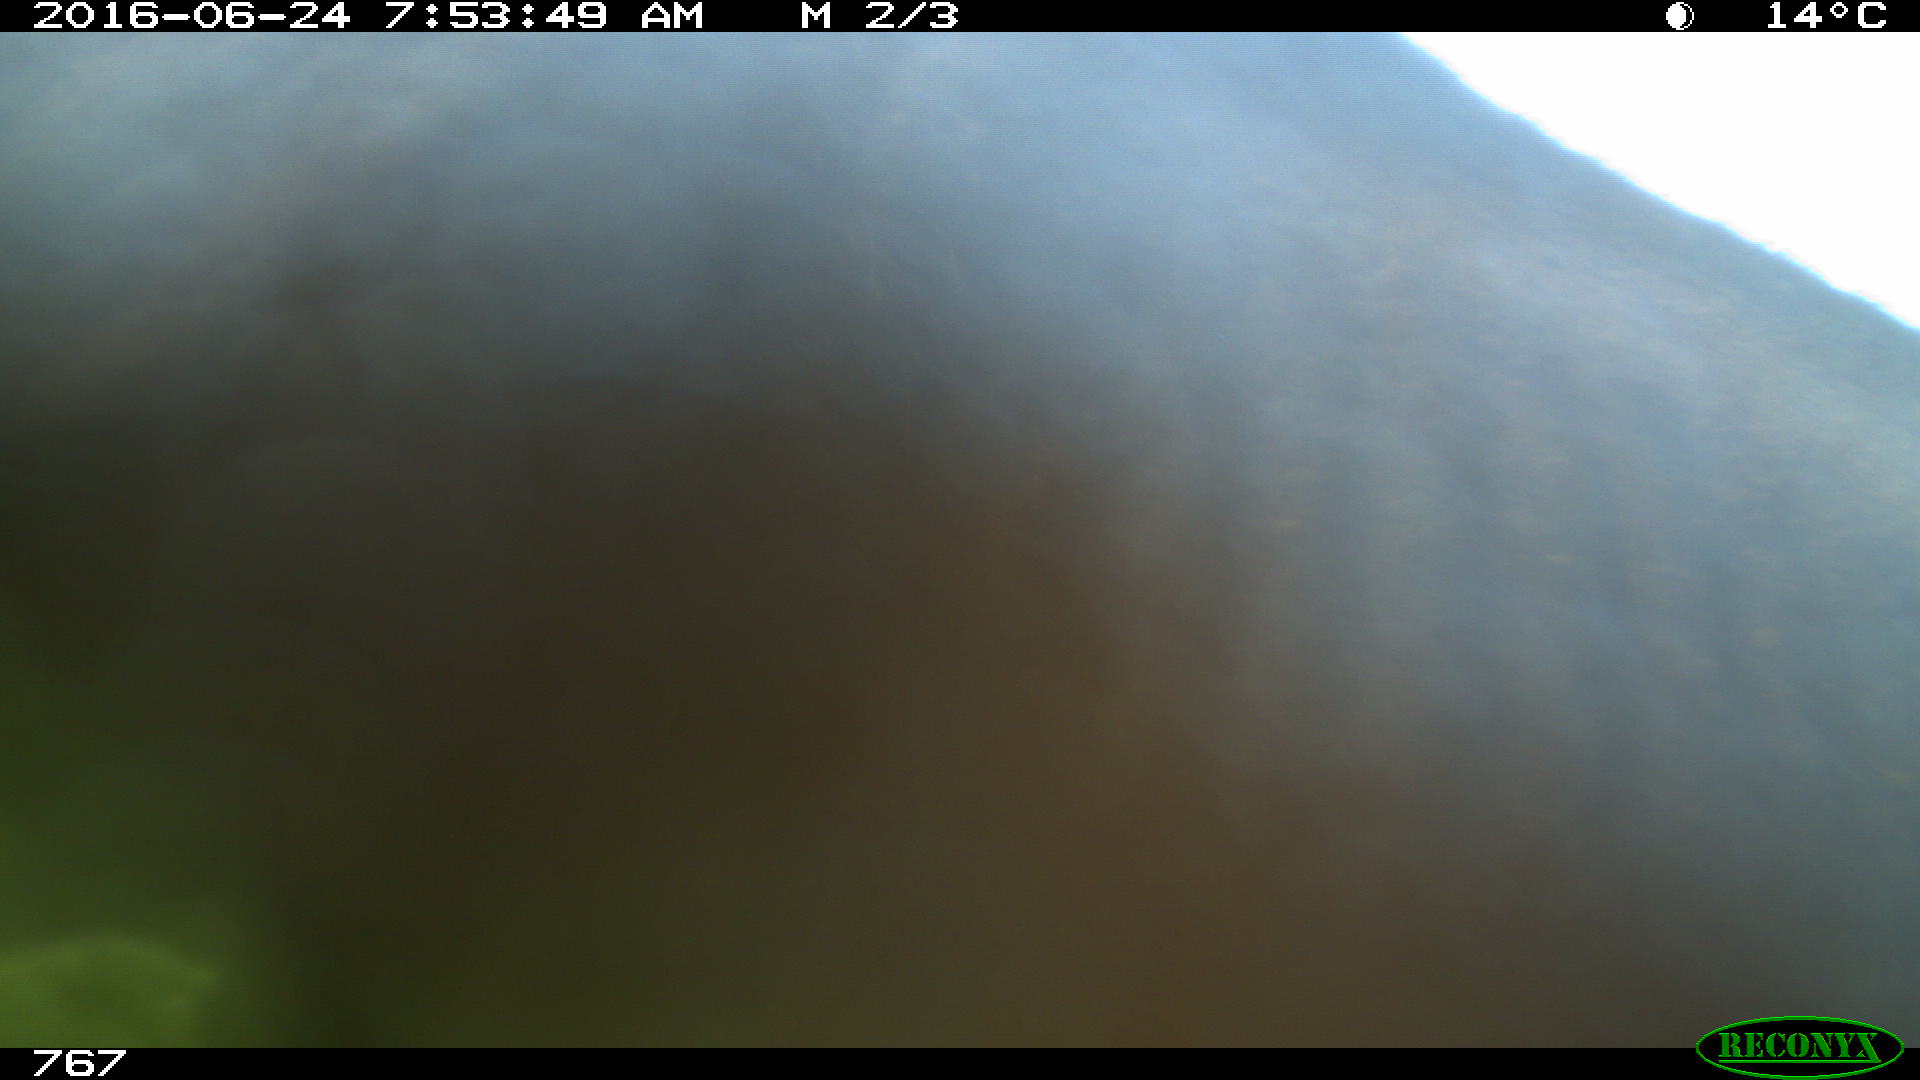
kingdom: Animalia
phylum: Chordata
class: Mammalia
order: Perissodactyla
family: Equidae
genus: Equus
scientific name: Equus caballus
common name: Horse
